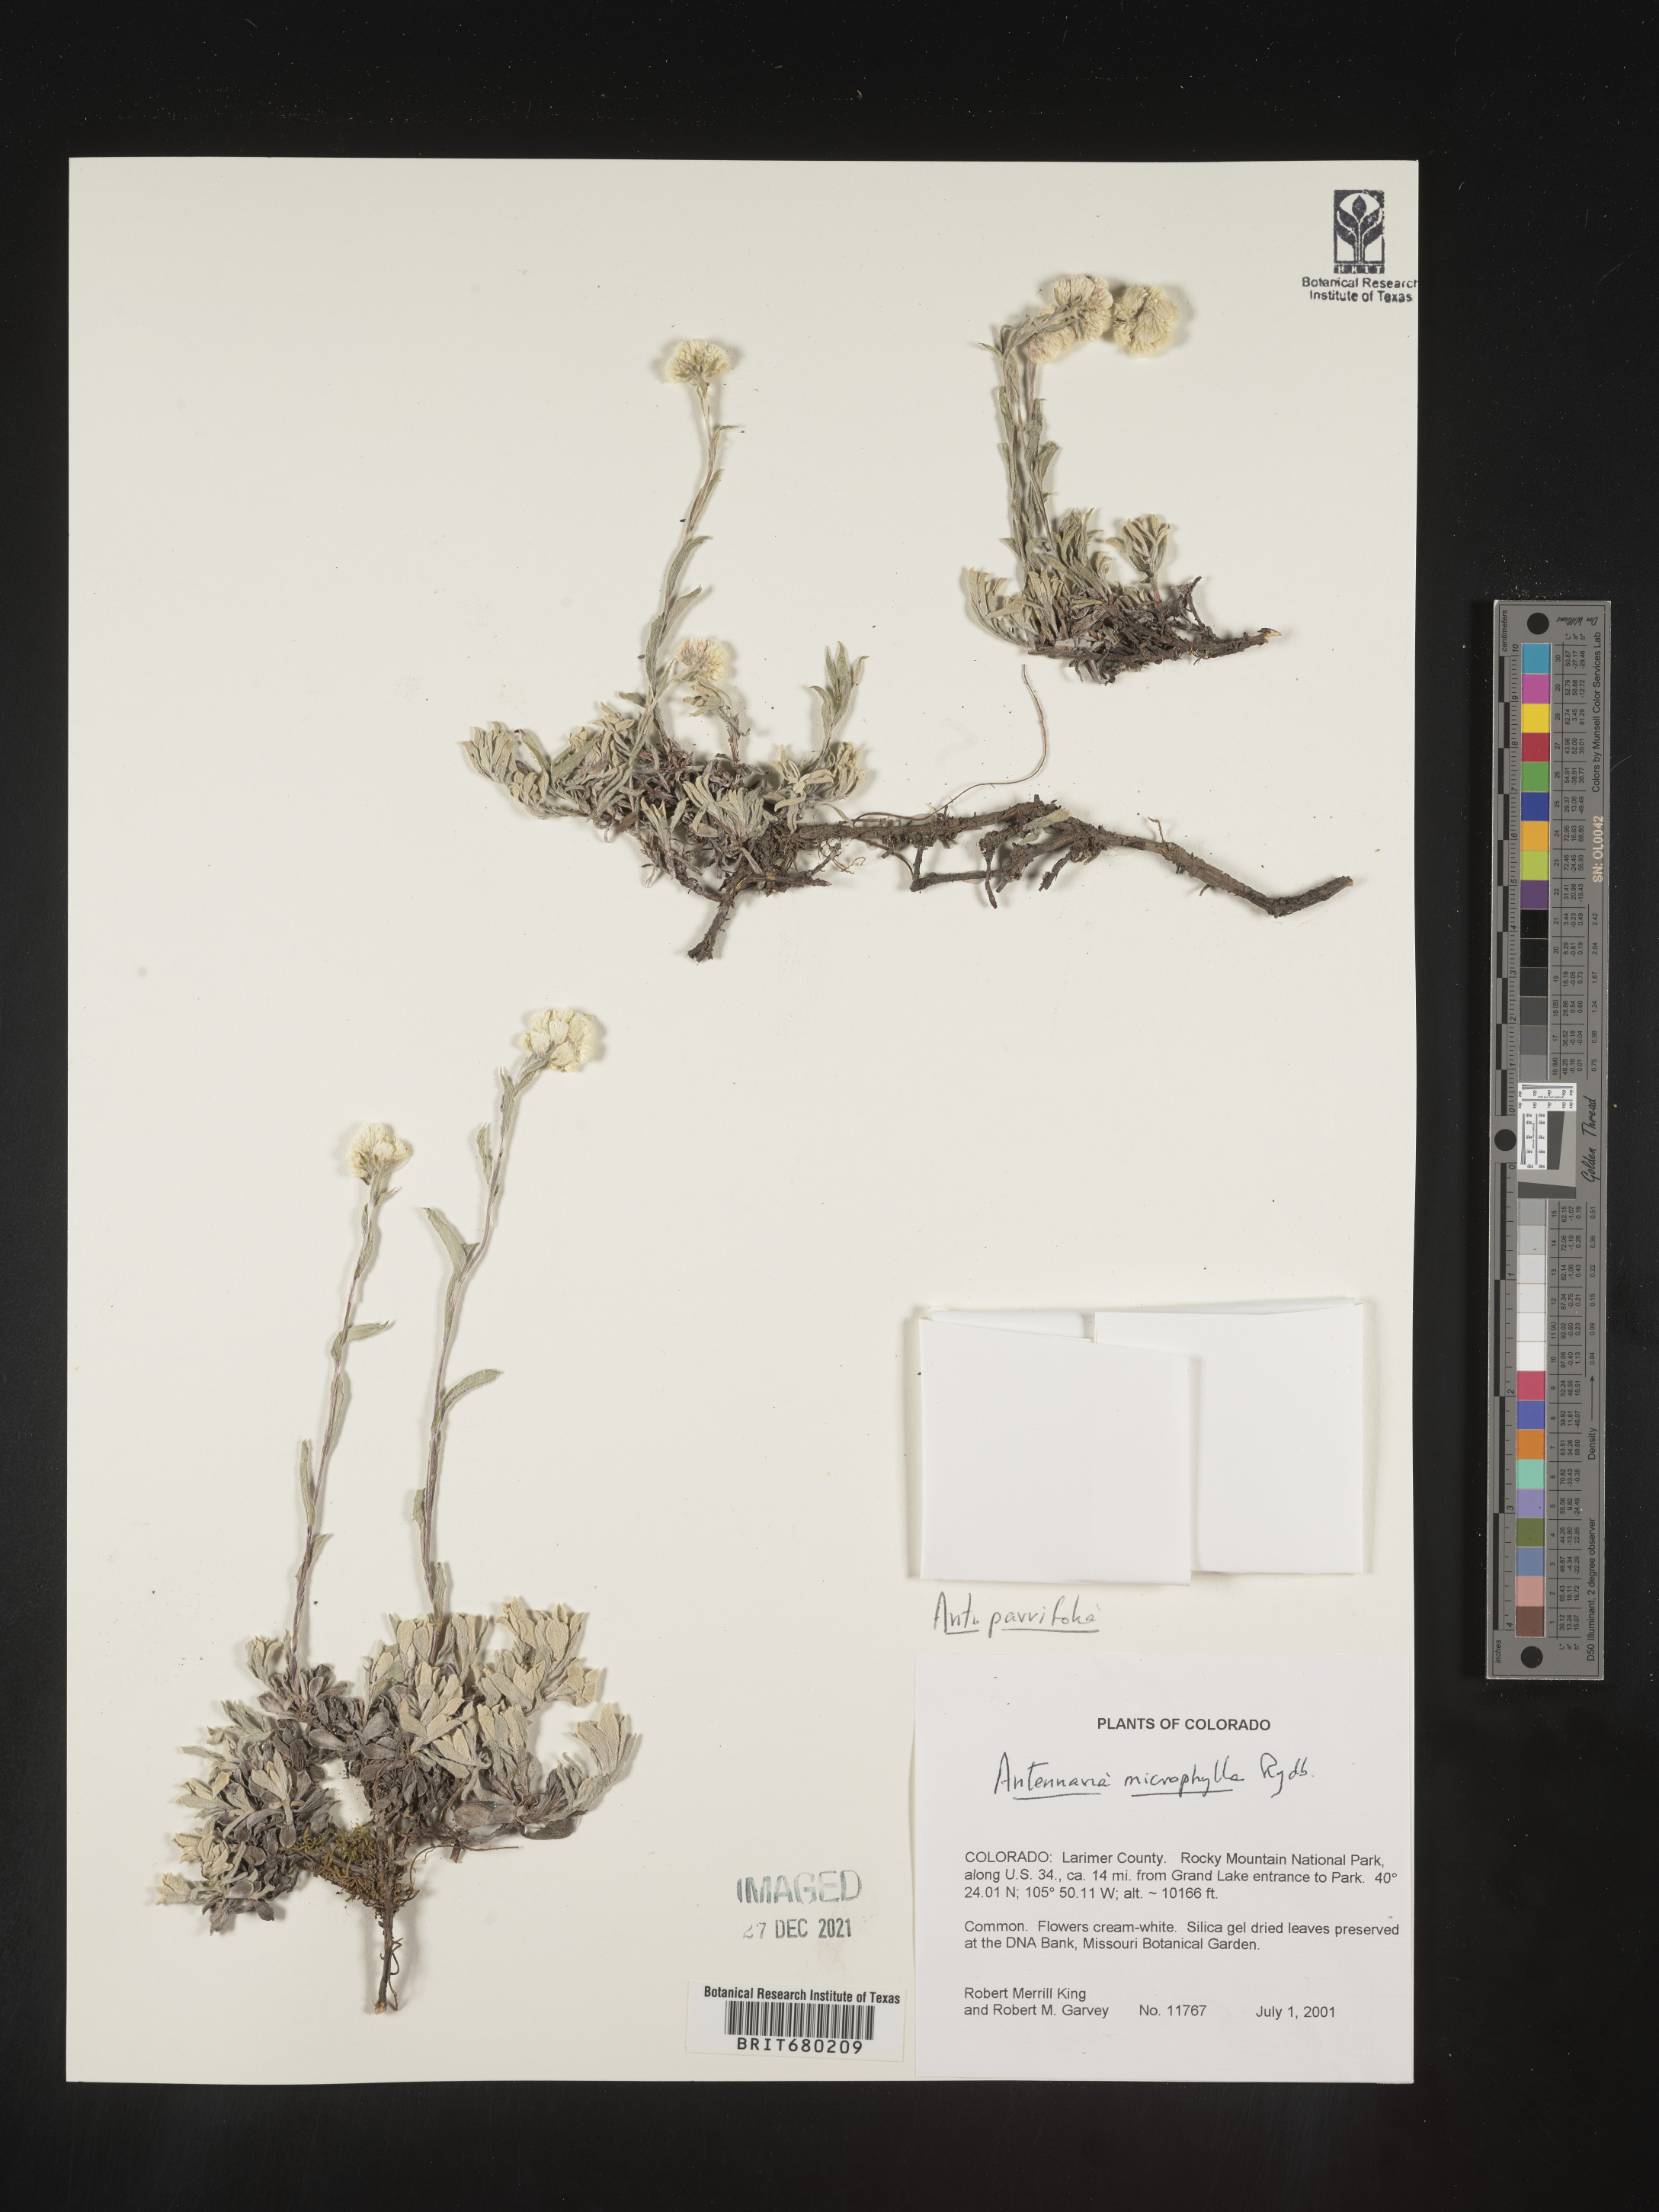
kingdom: Plantae
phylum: Tracheophyta
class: Magnoliopsida
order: Asterales
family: Asteraceae
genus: Antennaria
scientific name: Antennaria plantaginifolia
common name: Plantain-leaved pussytoes
